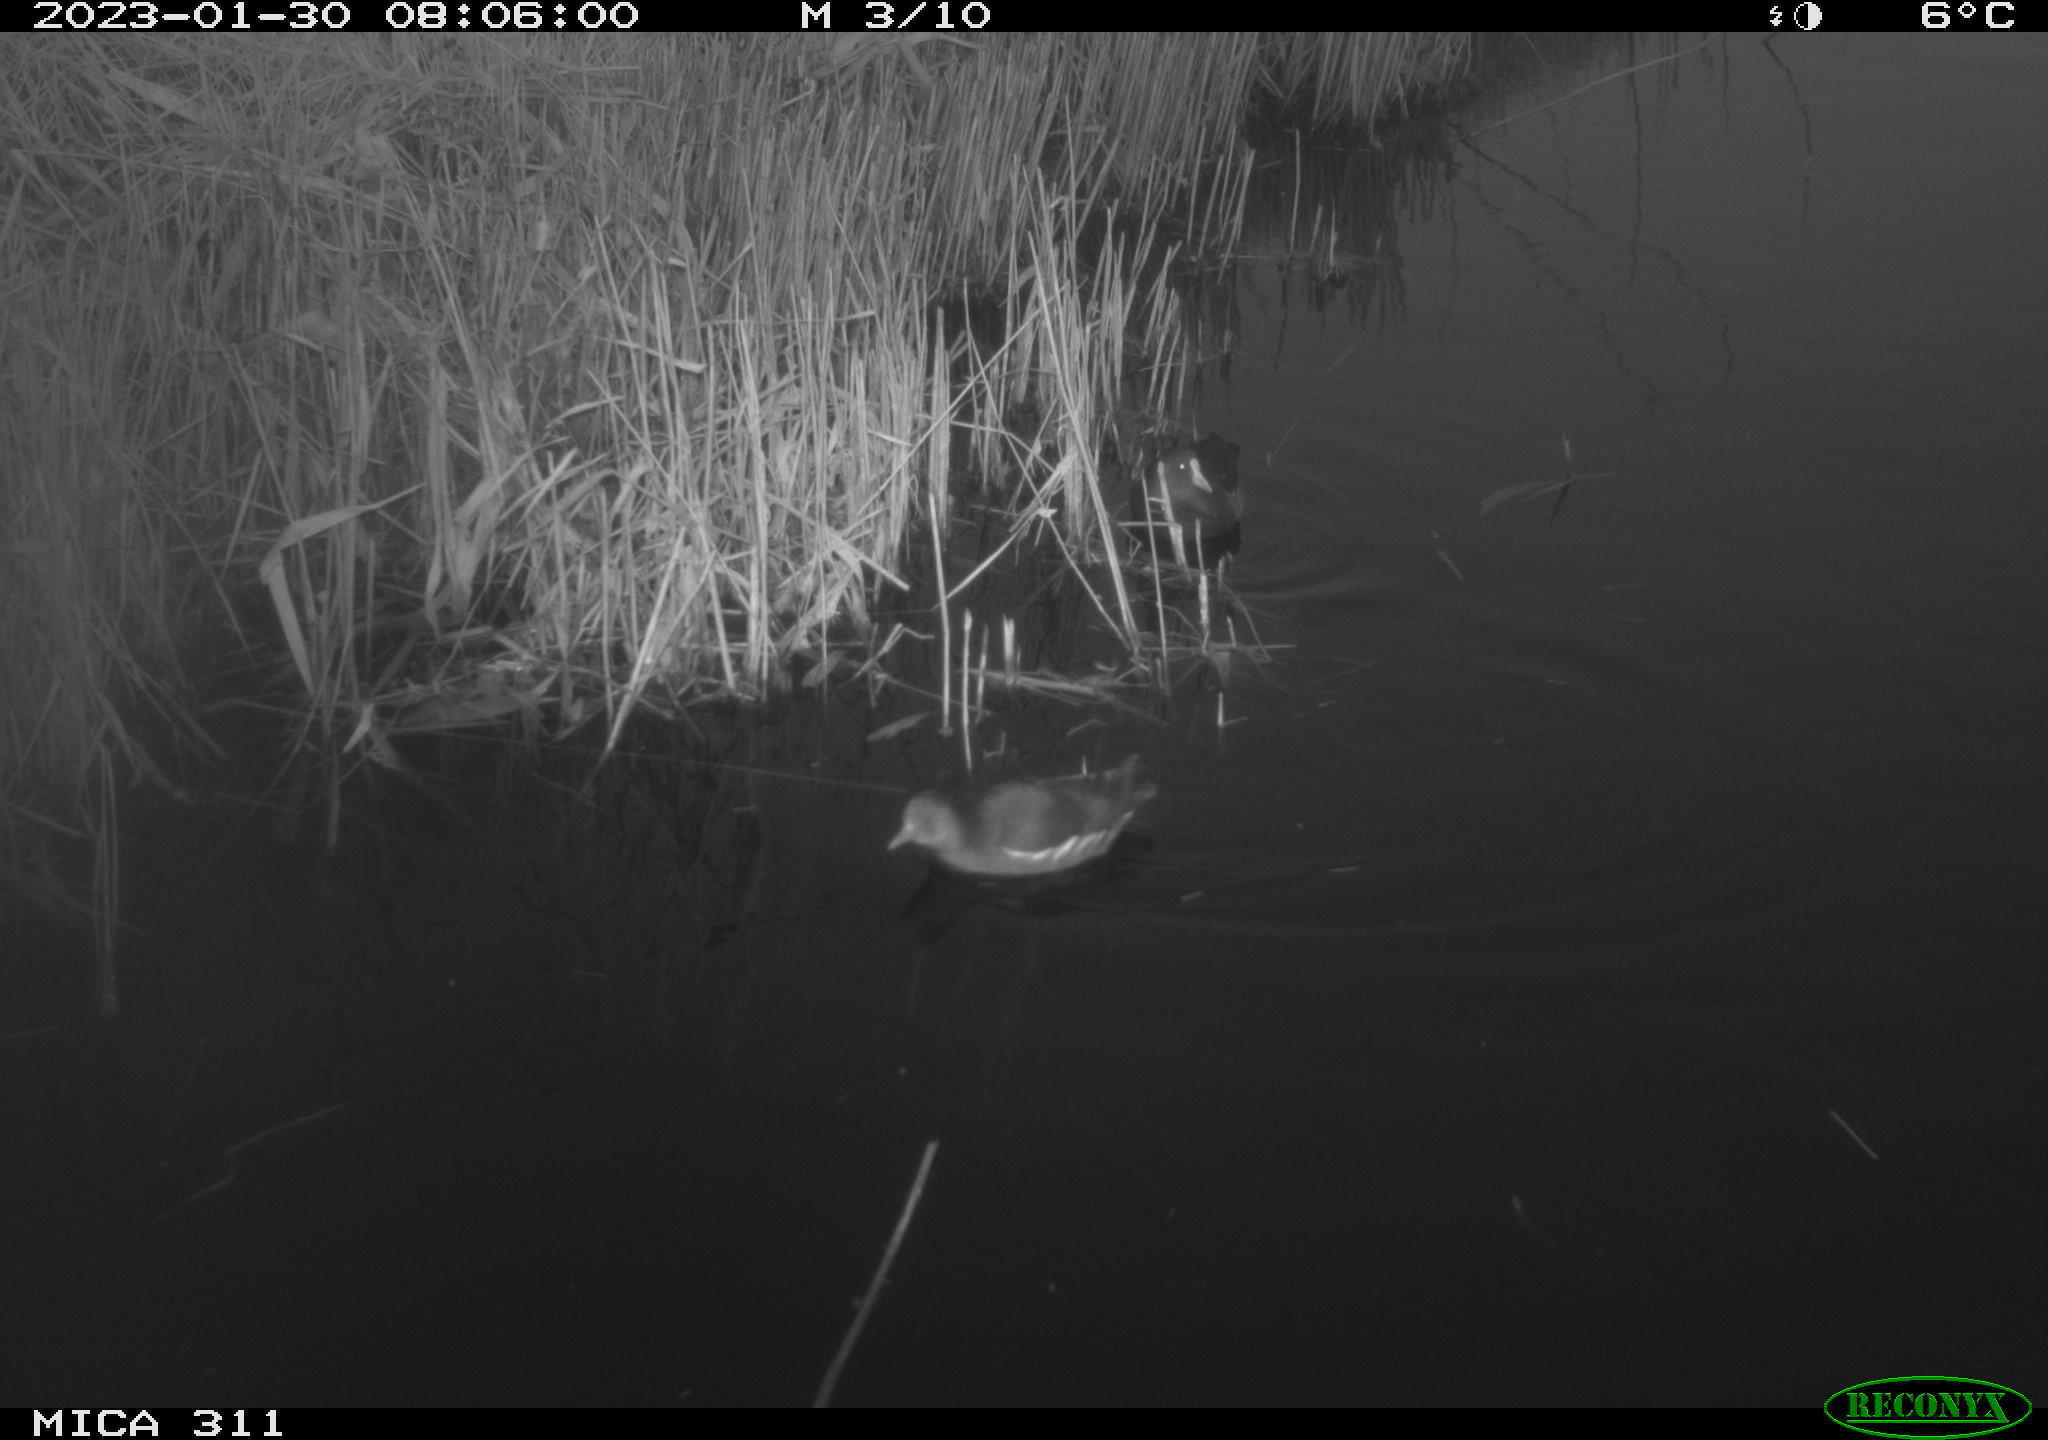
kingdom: Animalia
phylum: Chordata
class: Aves
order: Gruiformes
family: Rallidae
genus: Gallinula
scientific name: Gallinula chloropus
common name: Common moorhen
